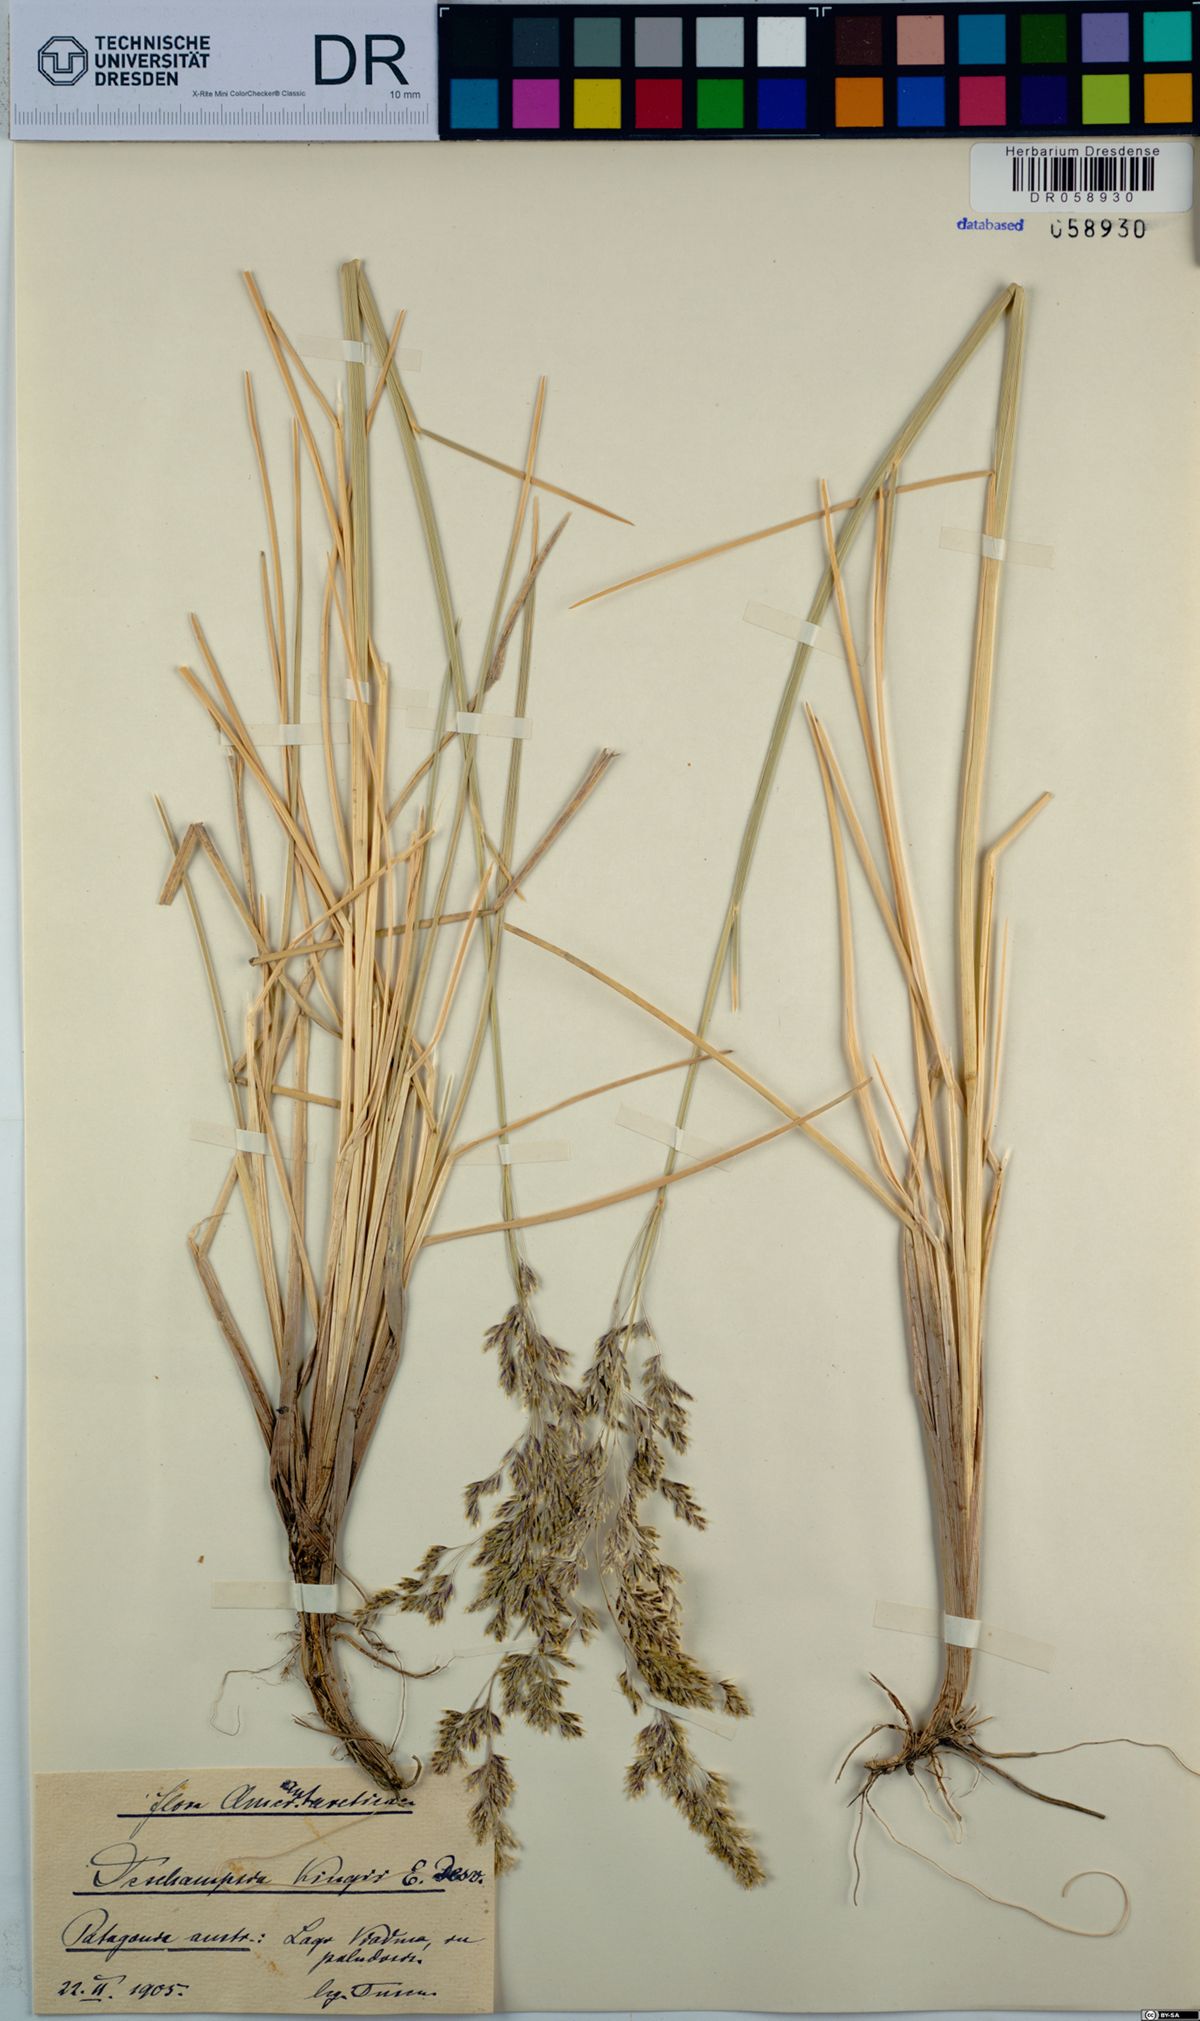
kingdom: Plantae
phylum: Tracheophyta
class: Liliopsida
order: Poales
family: Poaceae
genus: Deschampsia
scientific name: Deschampsia kingii
